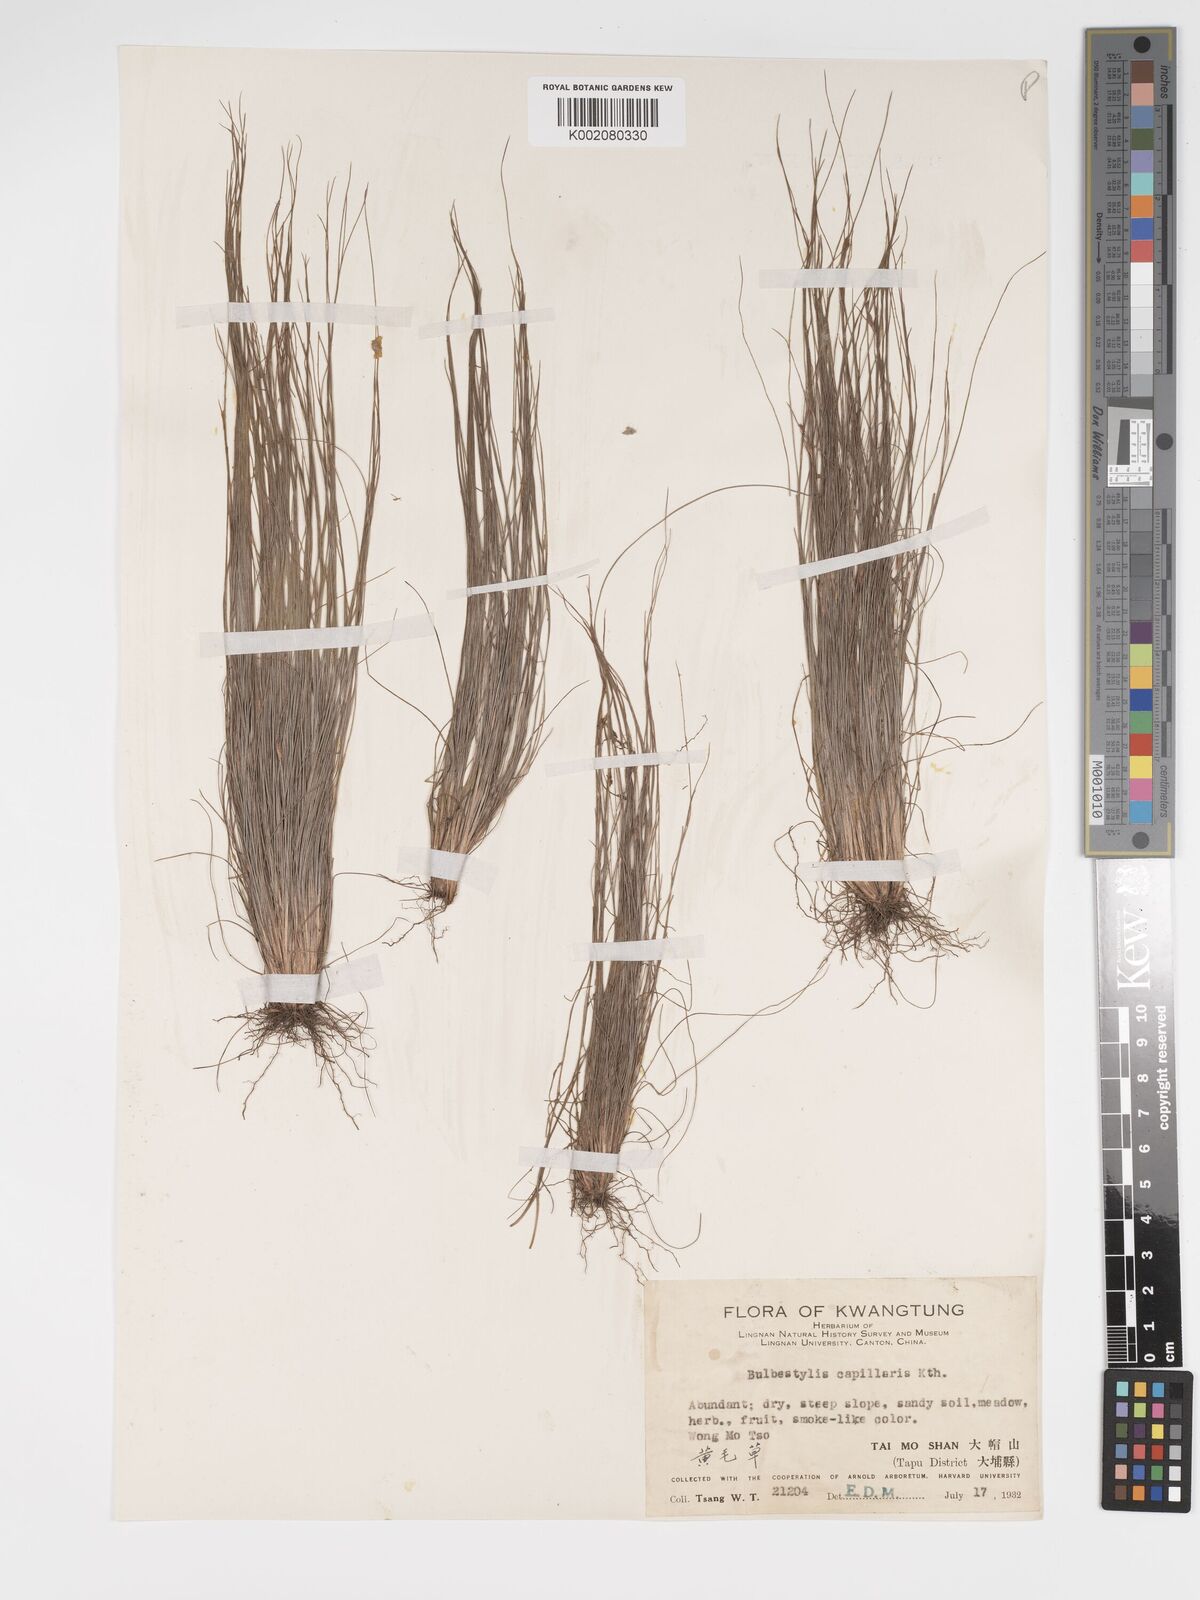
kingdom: Plantae
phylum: Tracheophyta
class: Liliopsida
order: Poales
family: Cyperaceae
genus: Bulbostylis
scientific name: Bulbostylis capillaris
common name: Densetuft hairsedge
